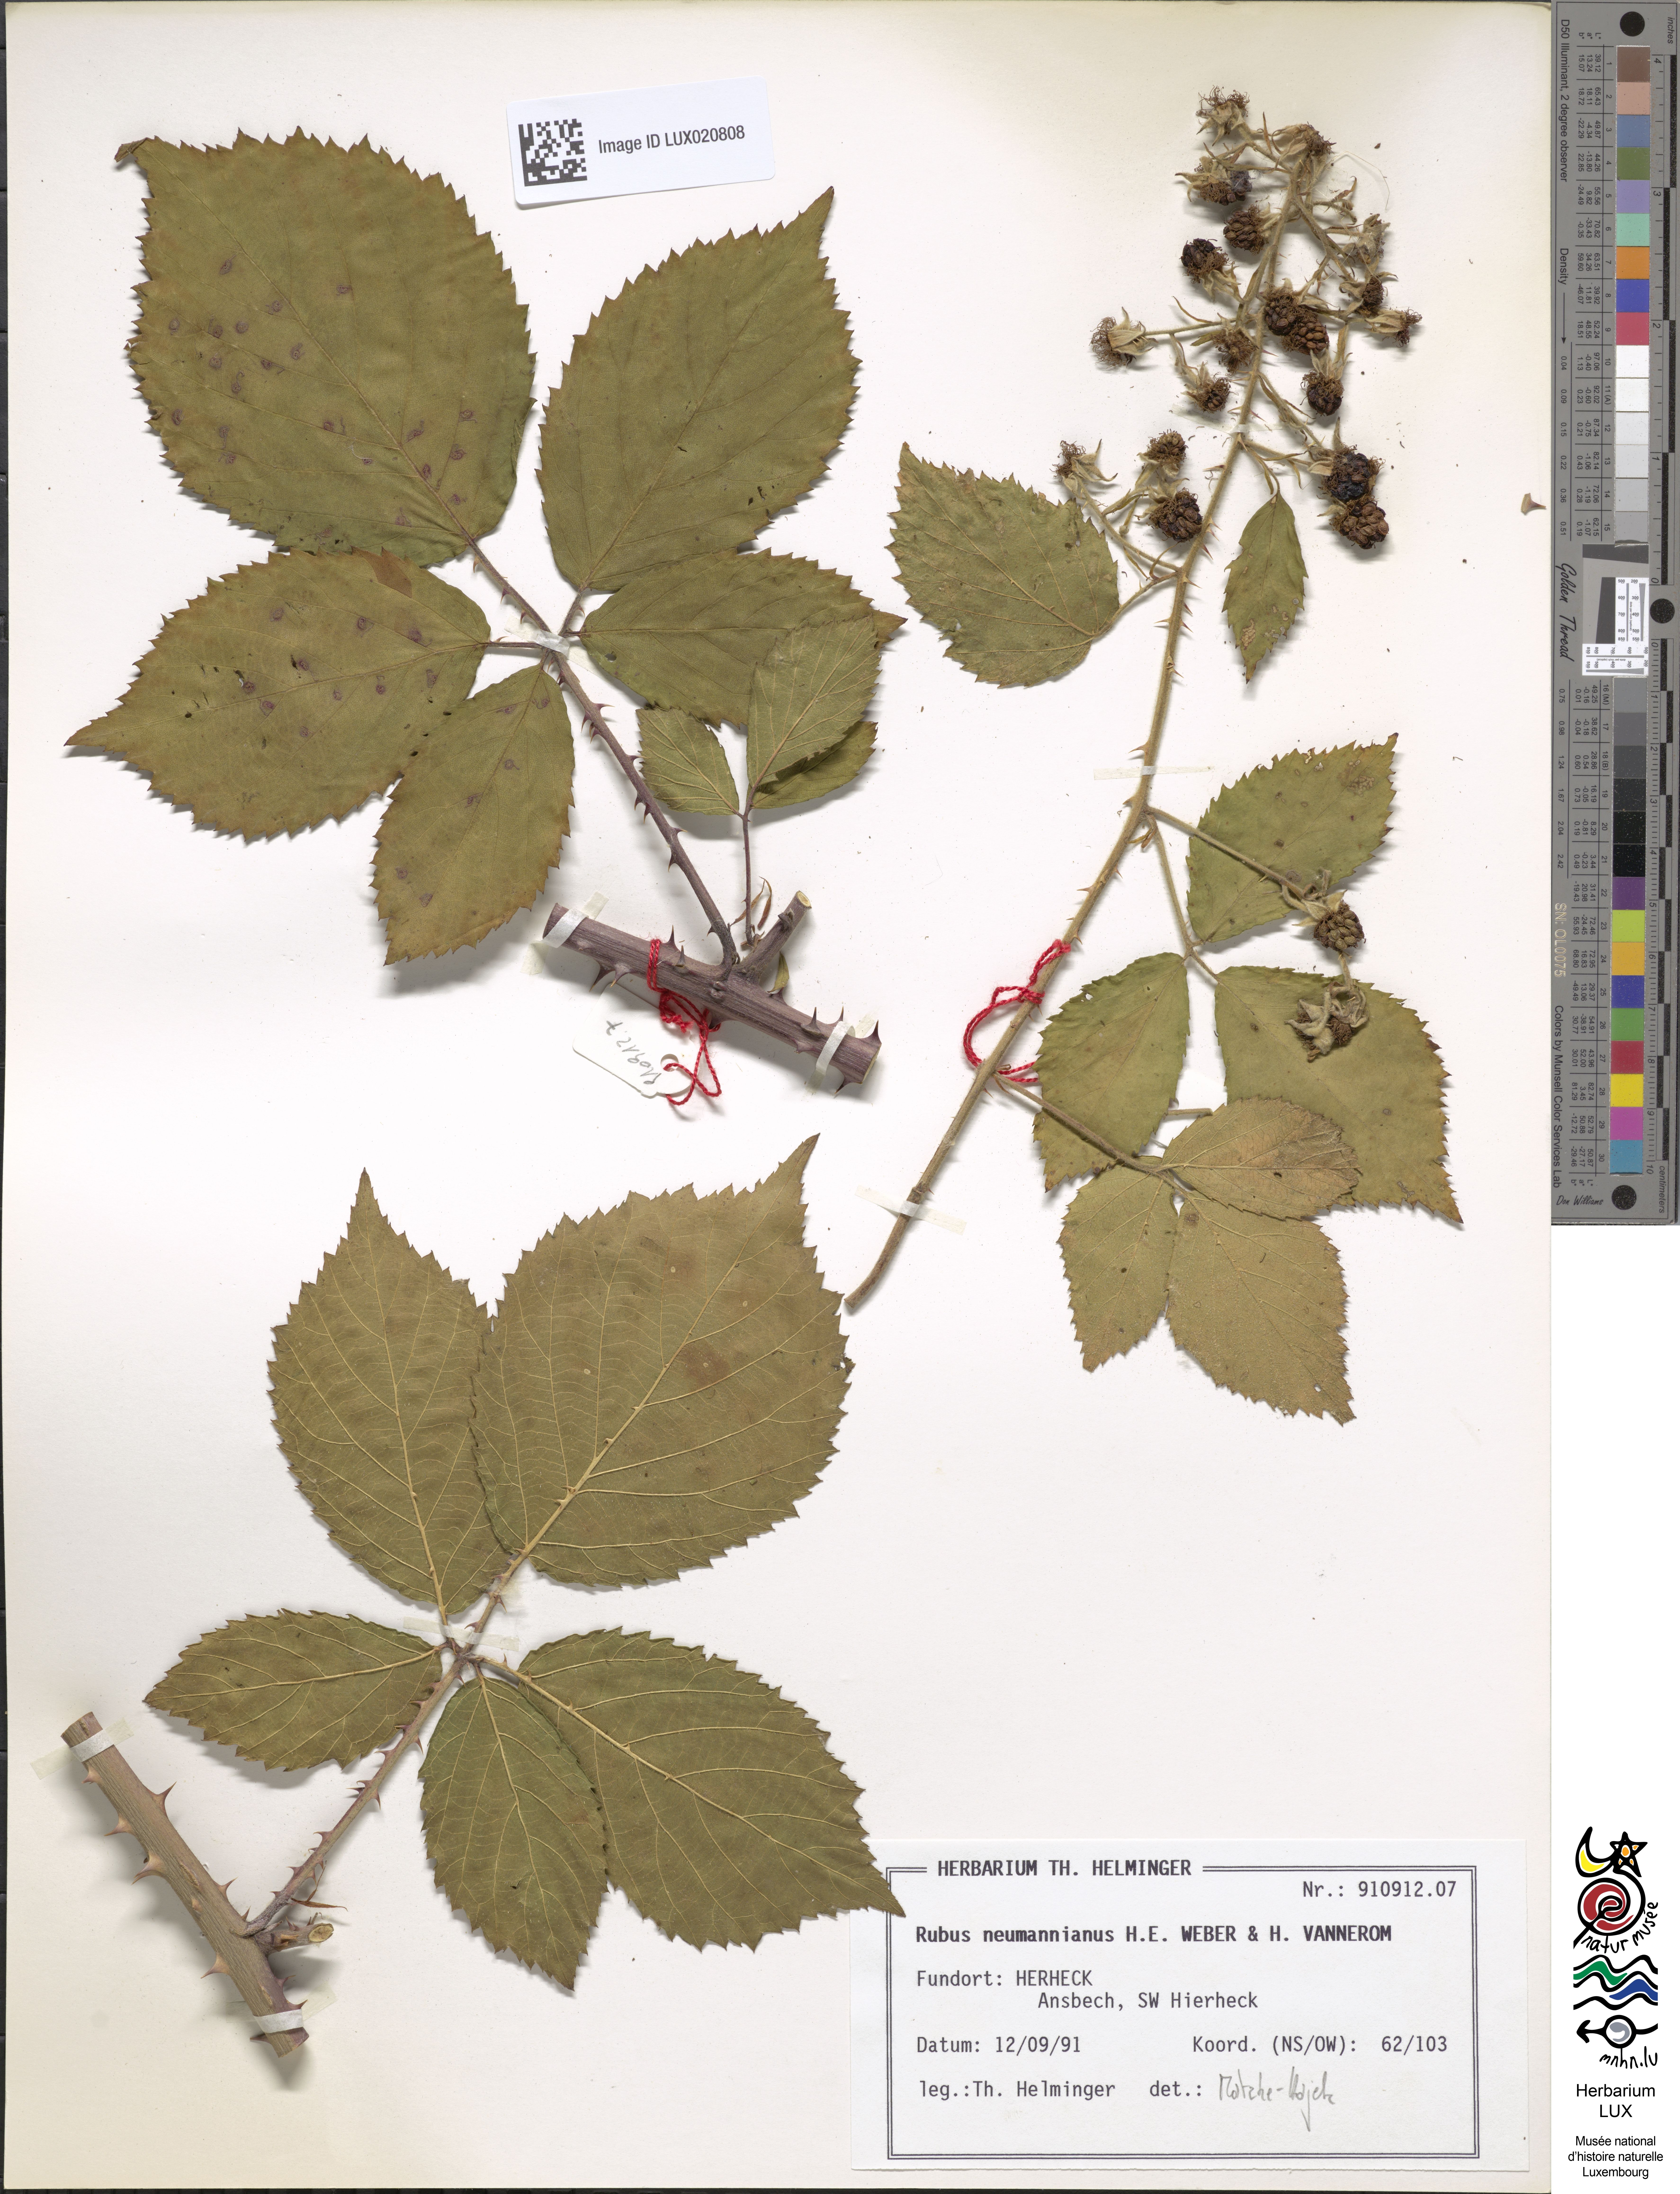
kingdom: Plantae
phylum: Tracheophyta
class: Magnoliopsida
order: Rosales
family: Rosaceae
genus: Rubus
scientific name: Rubus favonii
